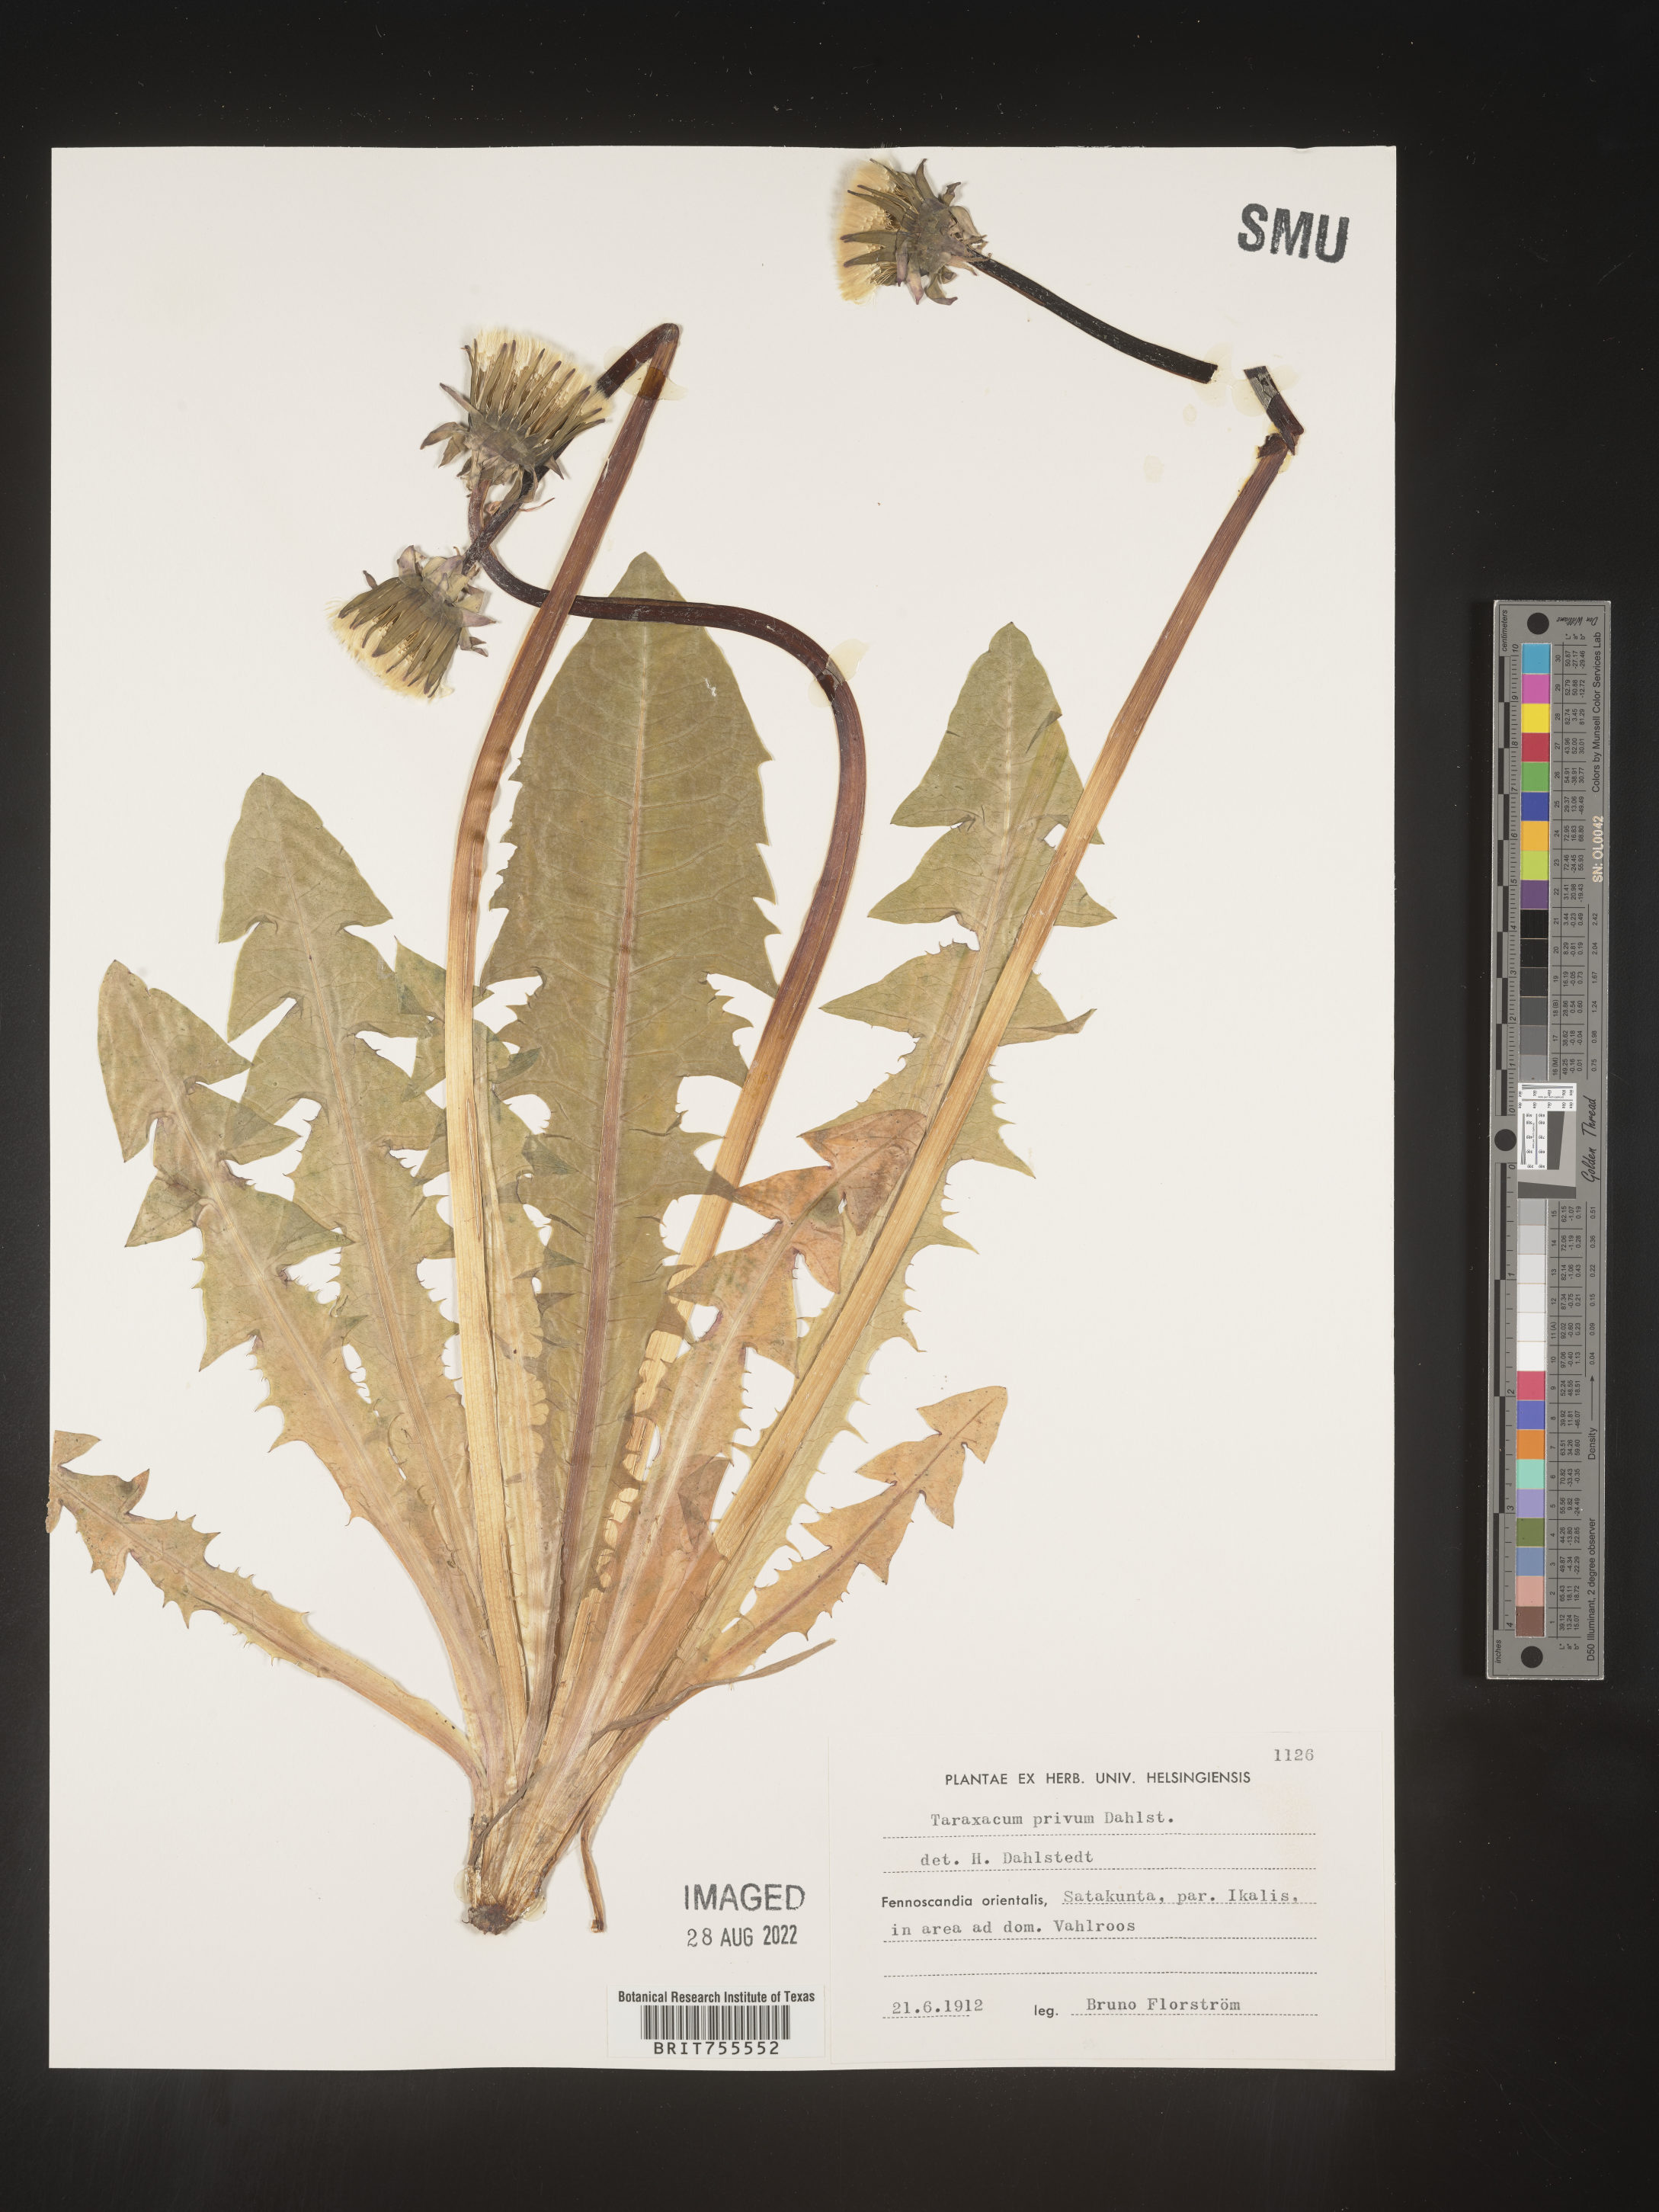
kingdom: Plantae
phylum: Tracheophyta
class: Magnoliopsida
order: Asterales
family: Asteraceae
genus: Taraxacum
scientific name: Taraxacum
